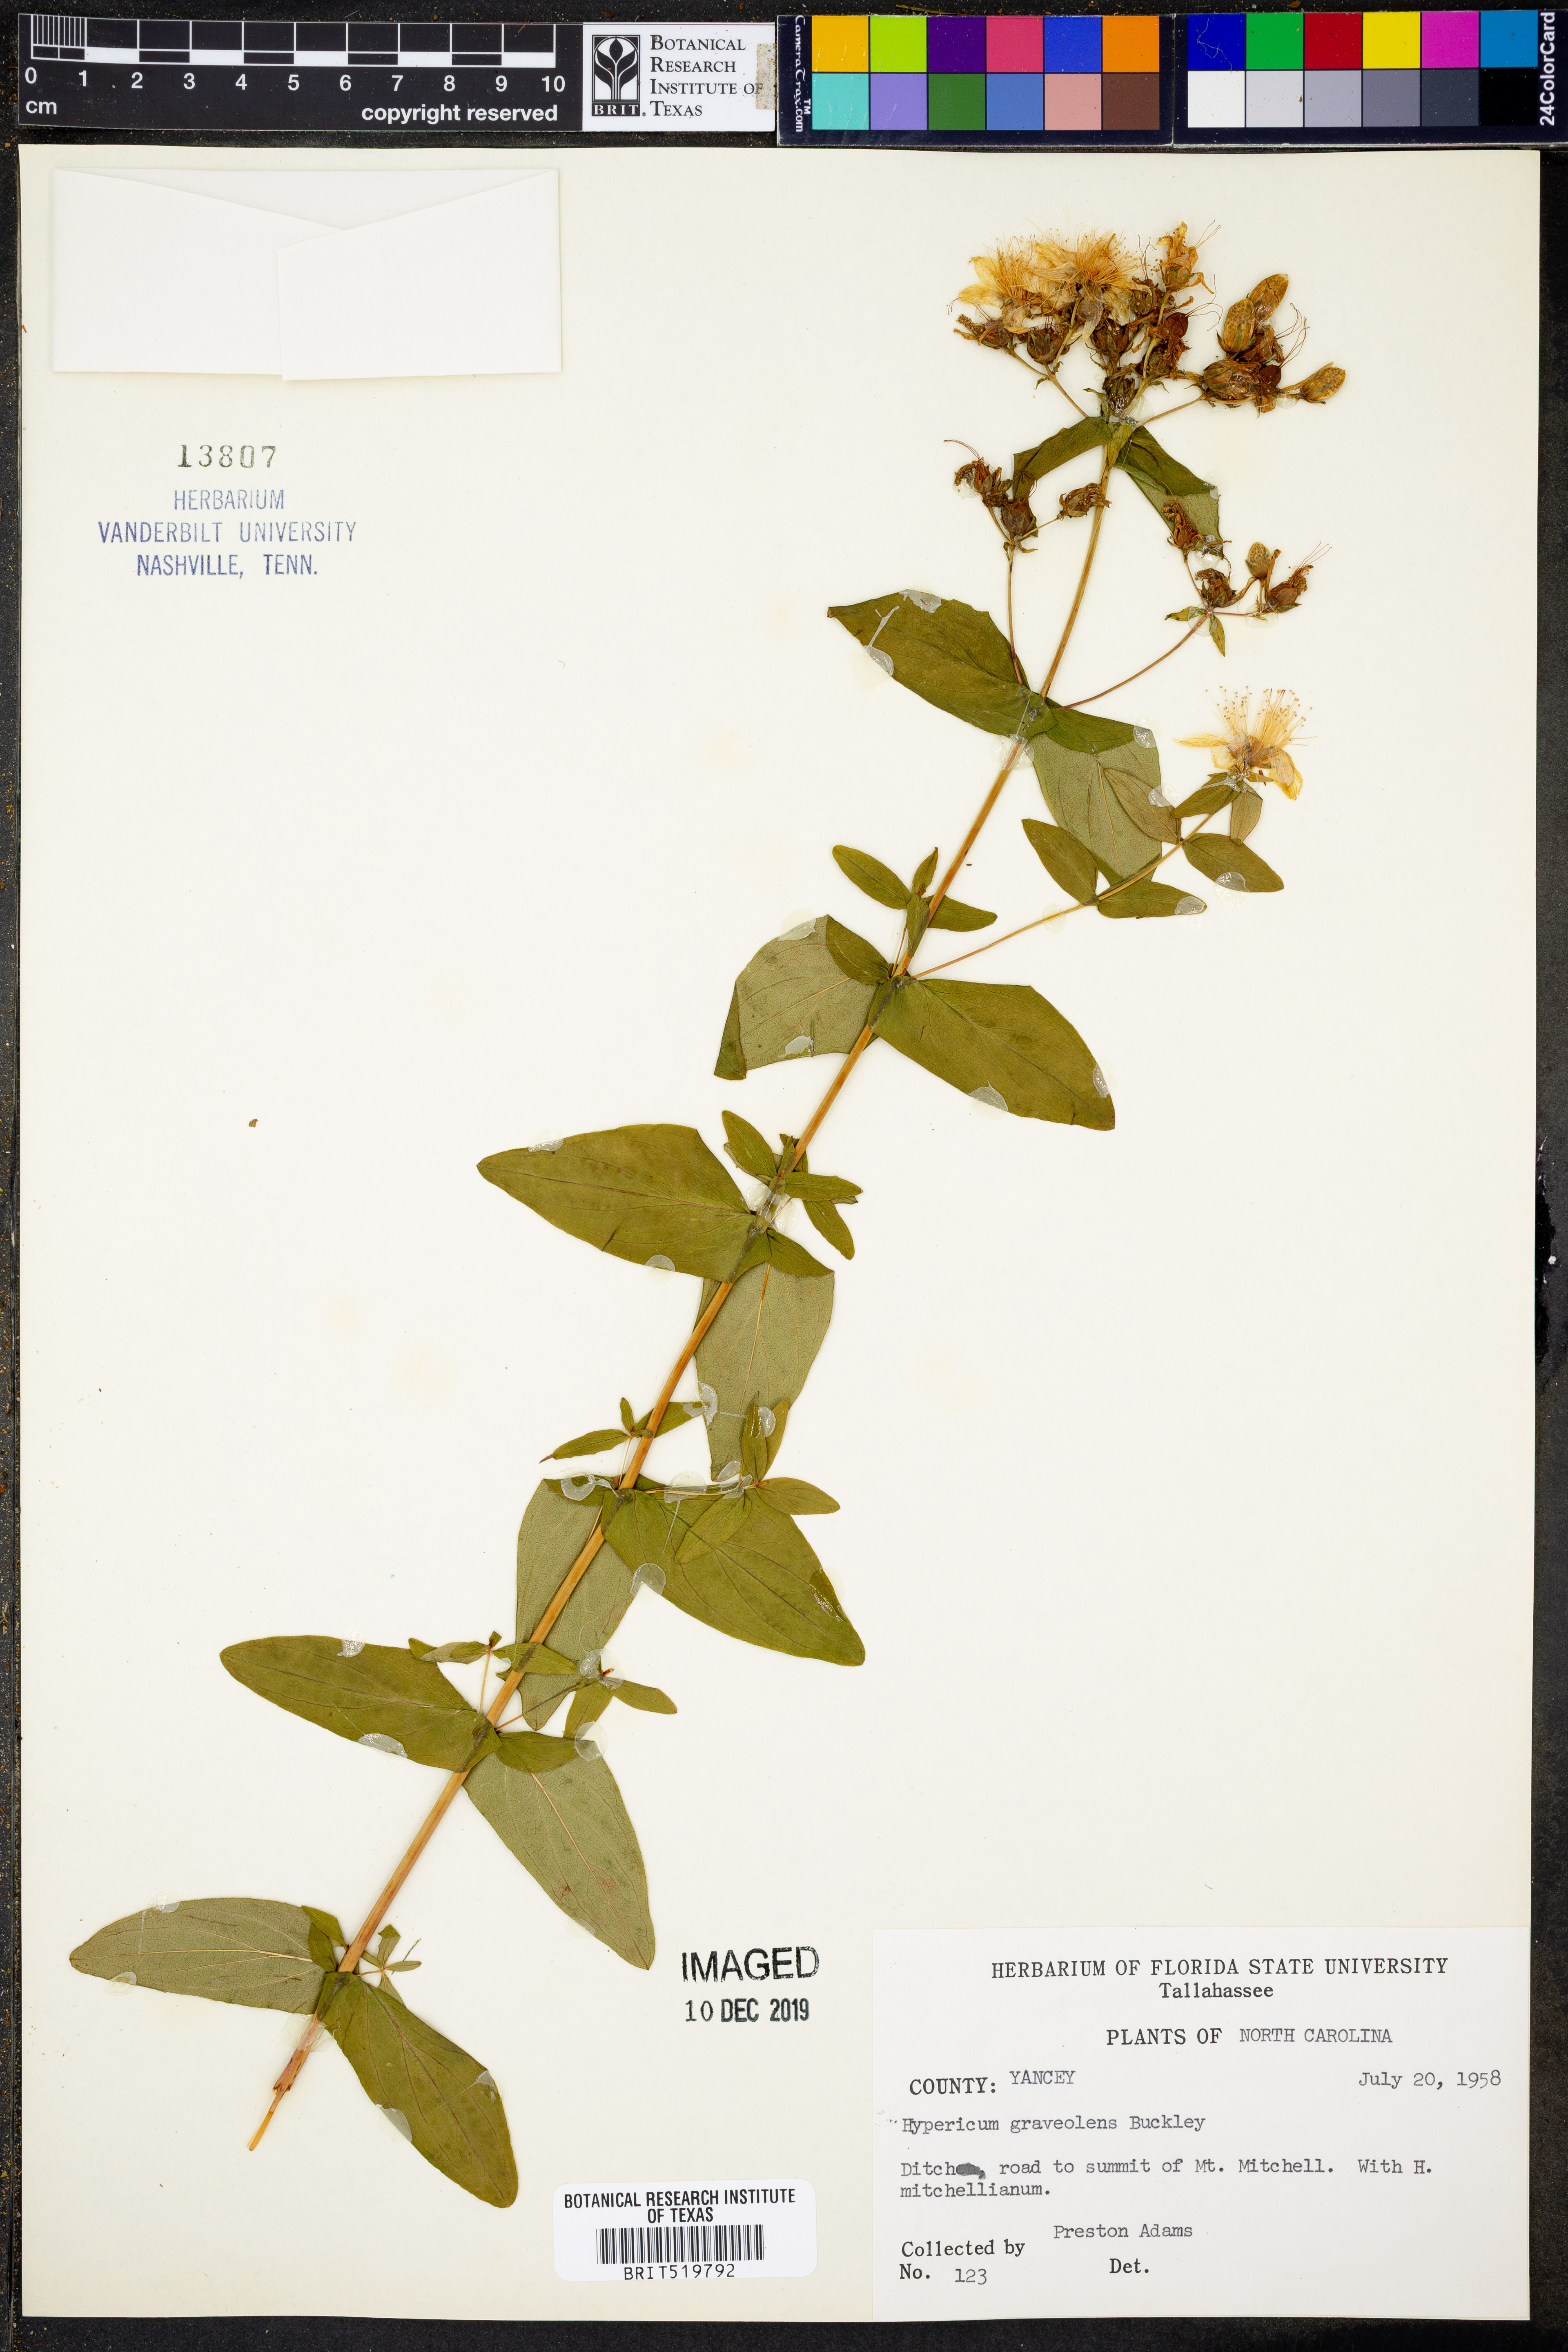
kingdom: Plantae
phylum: Tracheophyta
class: Magnoliopsida
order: Malpighiales
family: Hypericaceae
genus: Hypericum
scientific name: Hypericum graveolens
